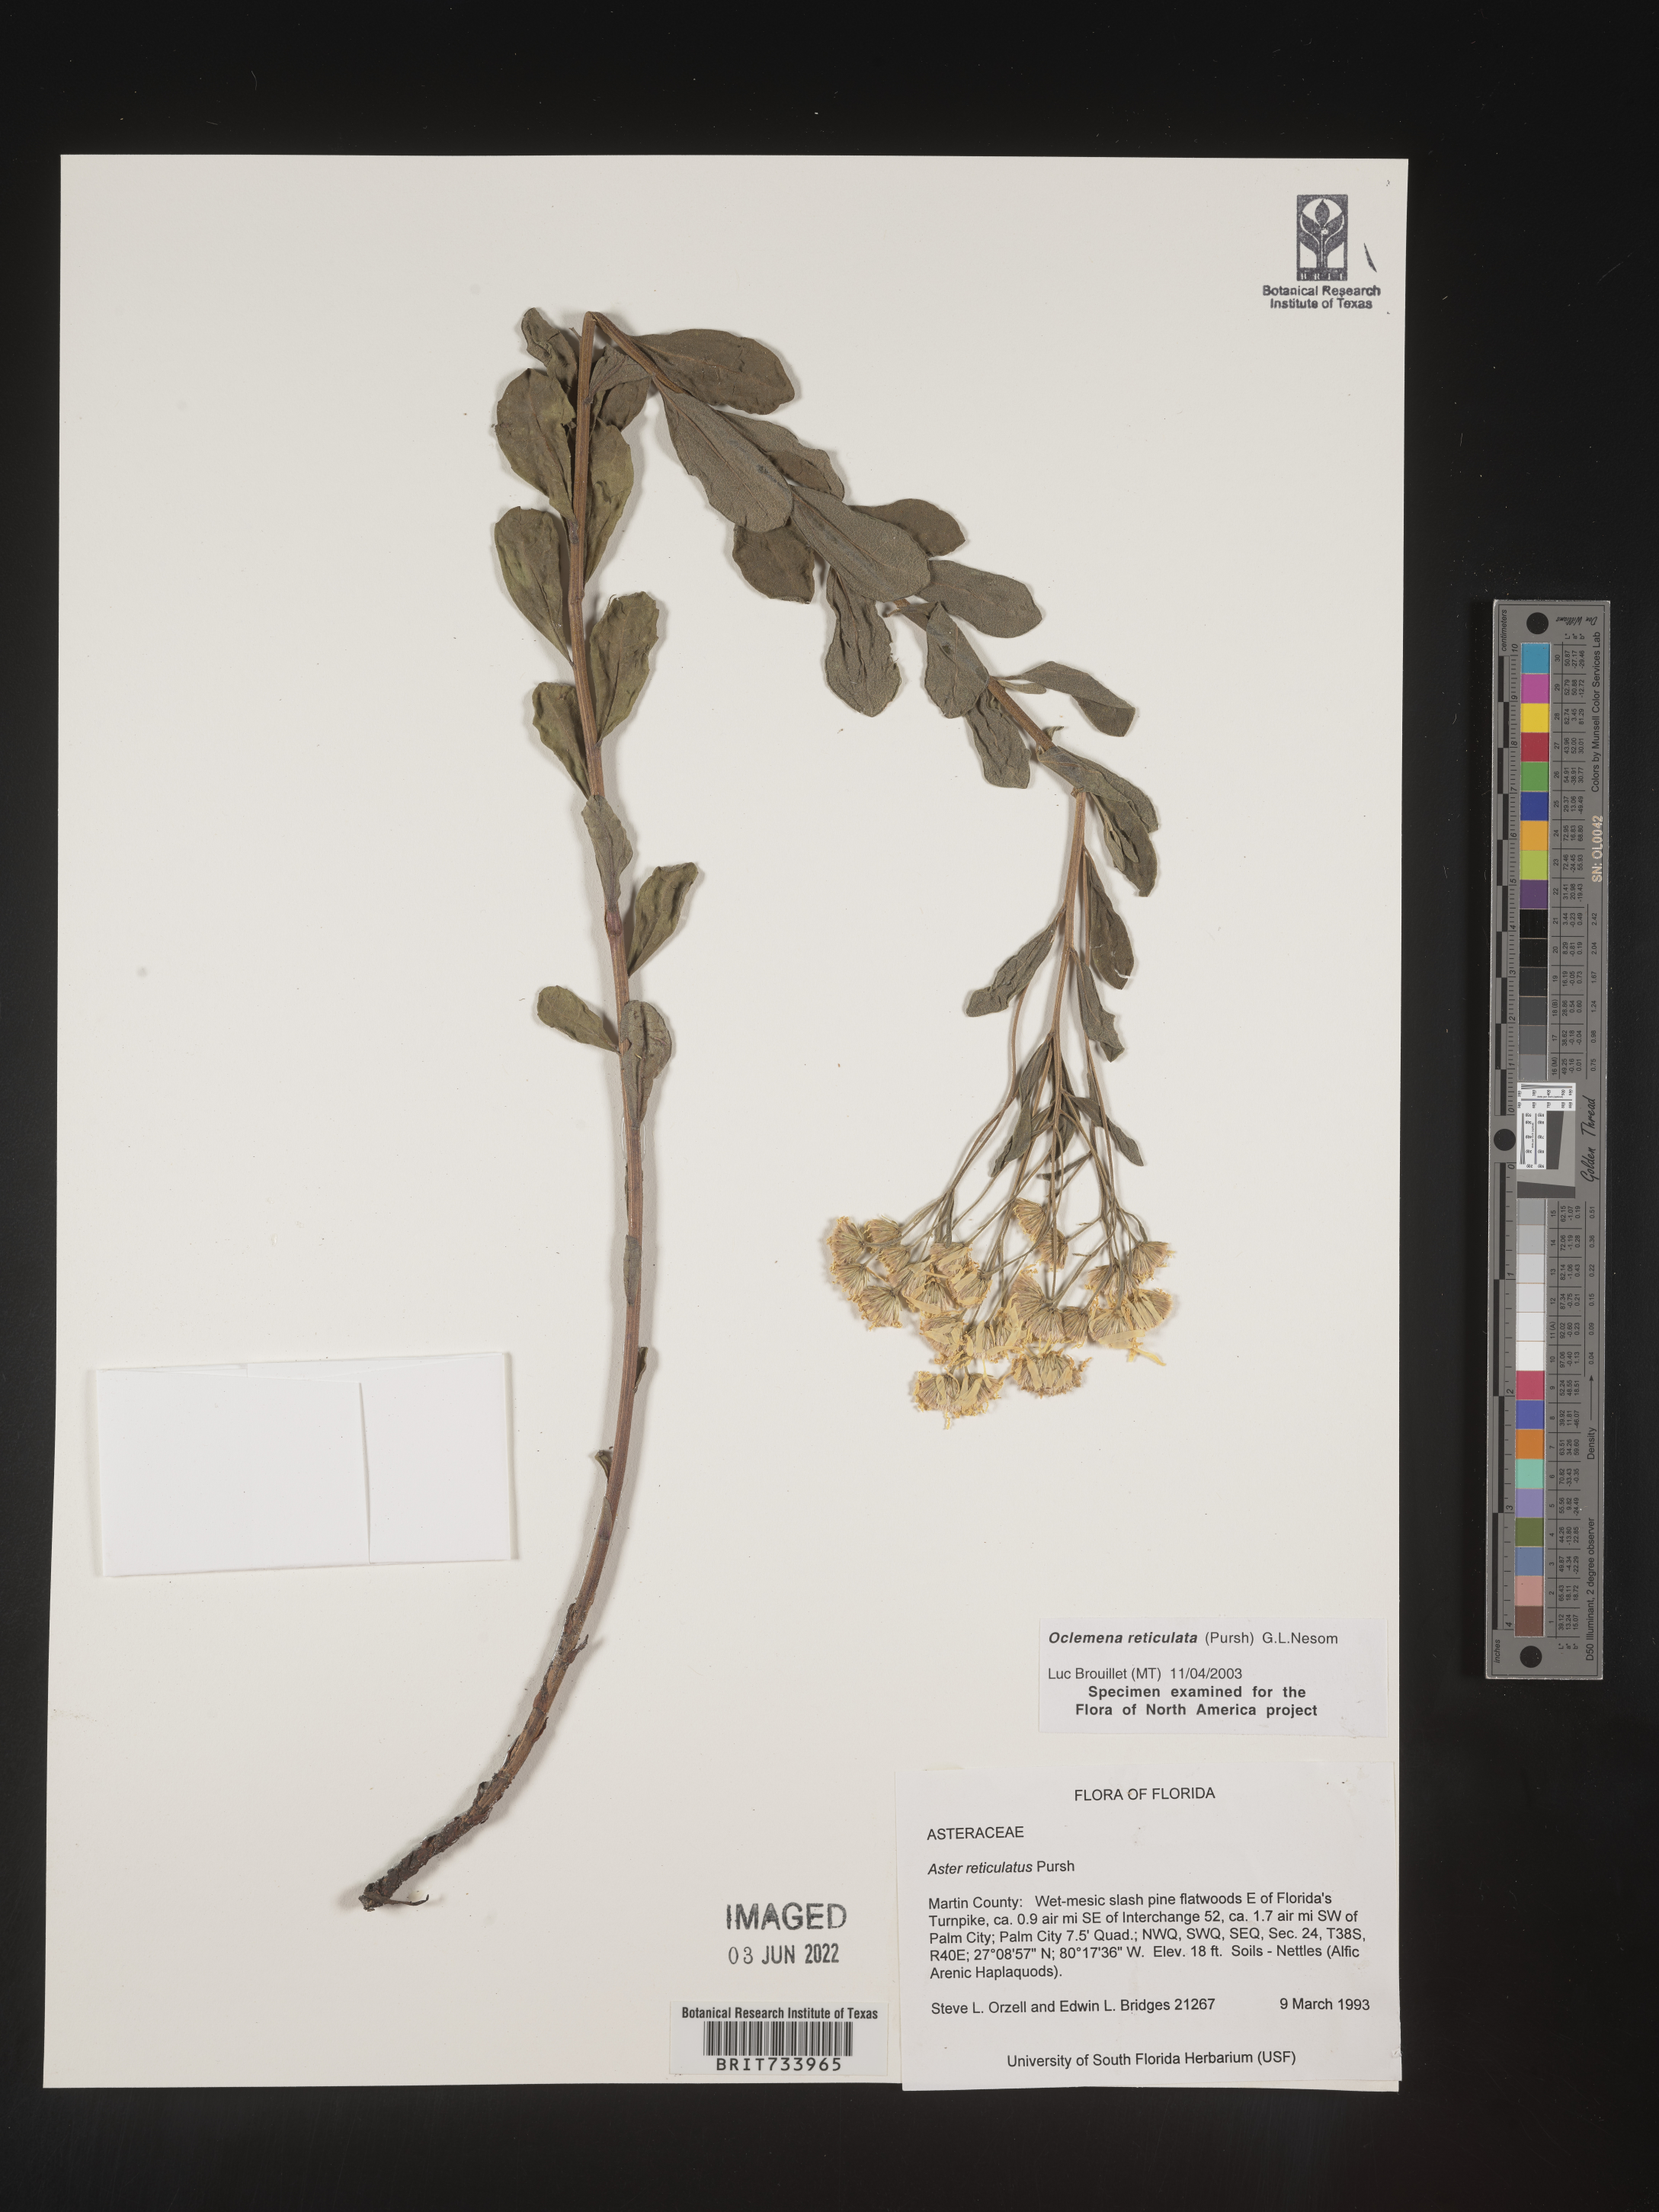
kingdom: Plantae
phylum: Tracheophyta
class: Magnoliopsida
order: Asterales
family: Asteraceae
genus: Oclemena
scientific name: Oclemena reticulata
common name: Pinebarren aster
